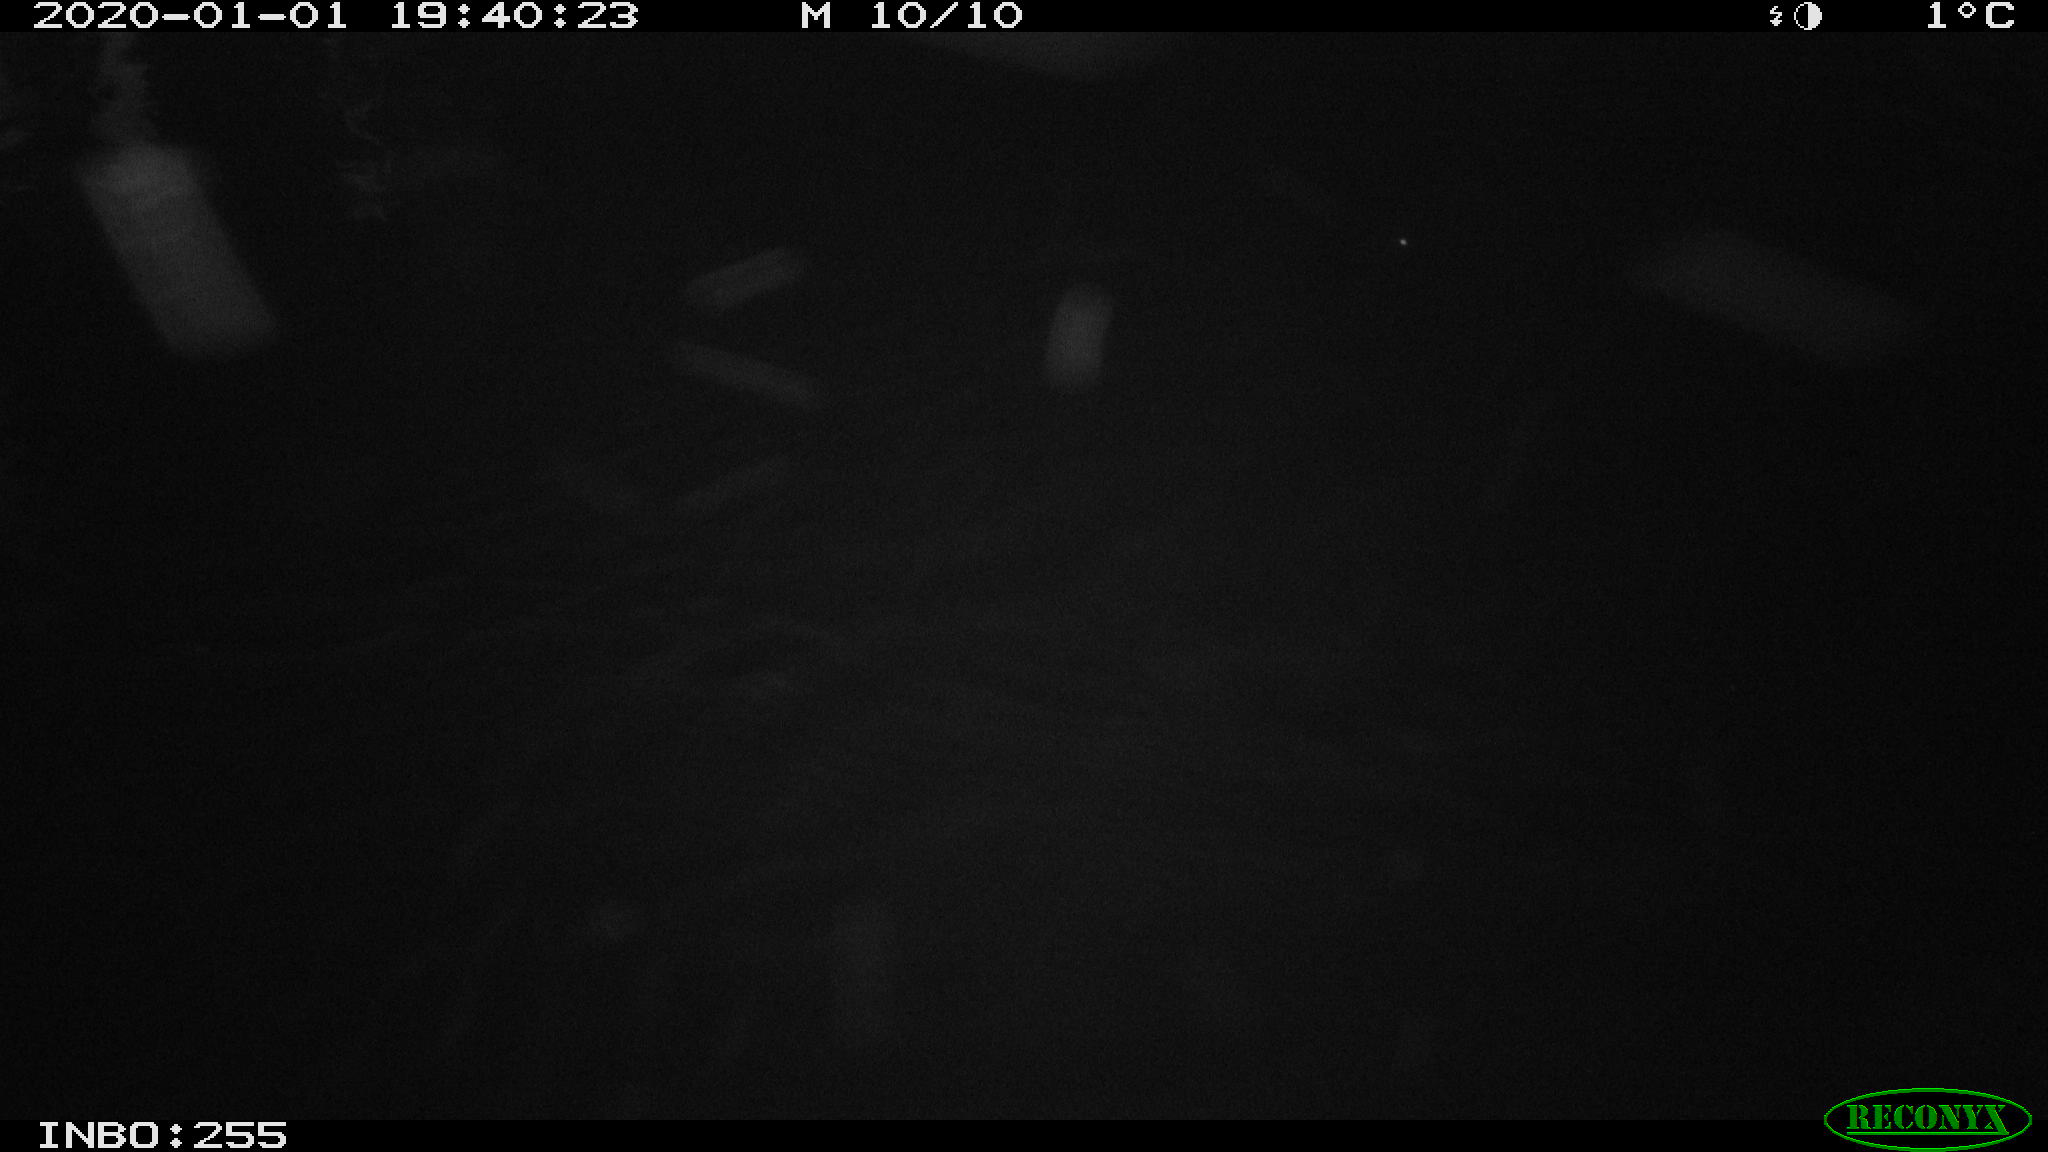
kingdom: Animalia
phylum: Chordata
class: Mammalia
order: Rodentia
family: Cricetidae
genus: Arvicola
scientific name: Arvicola amphibius
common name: European water vole
